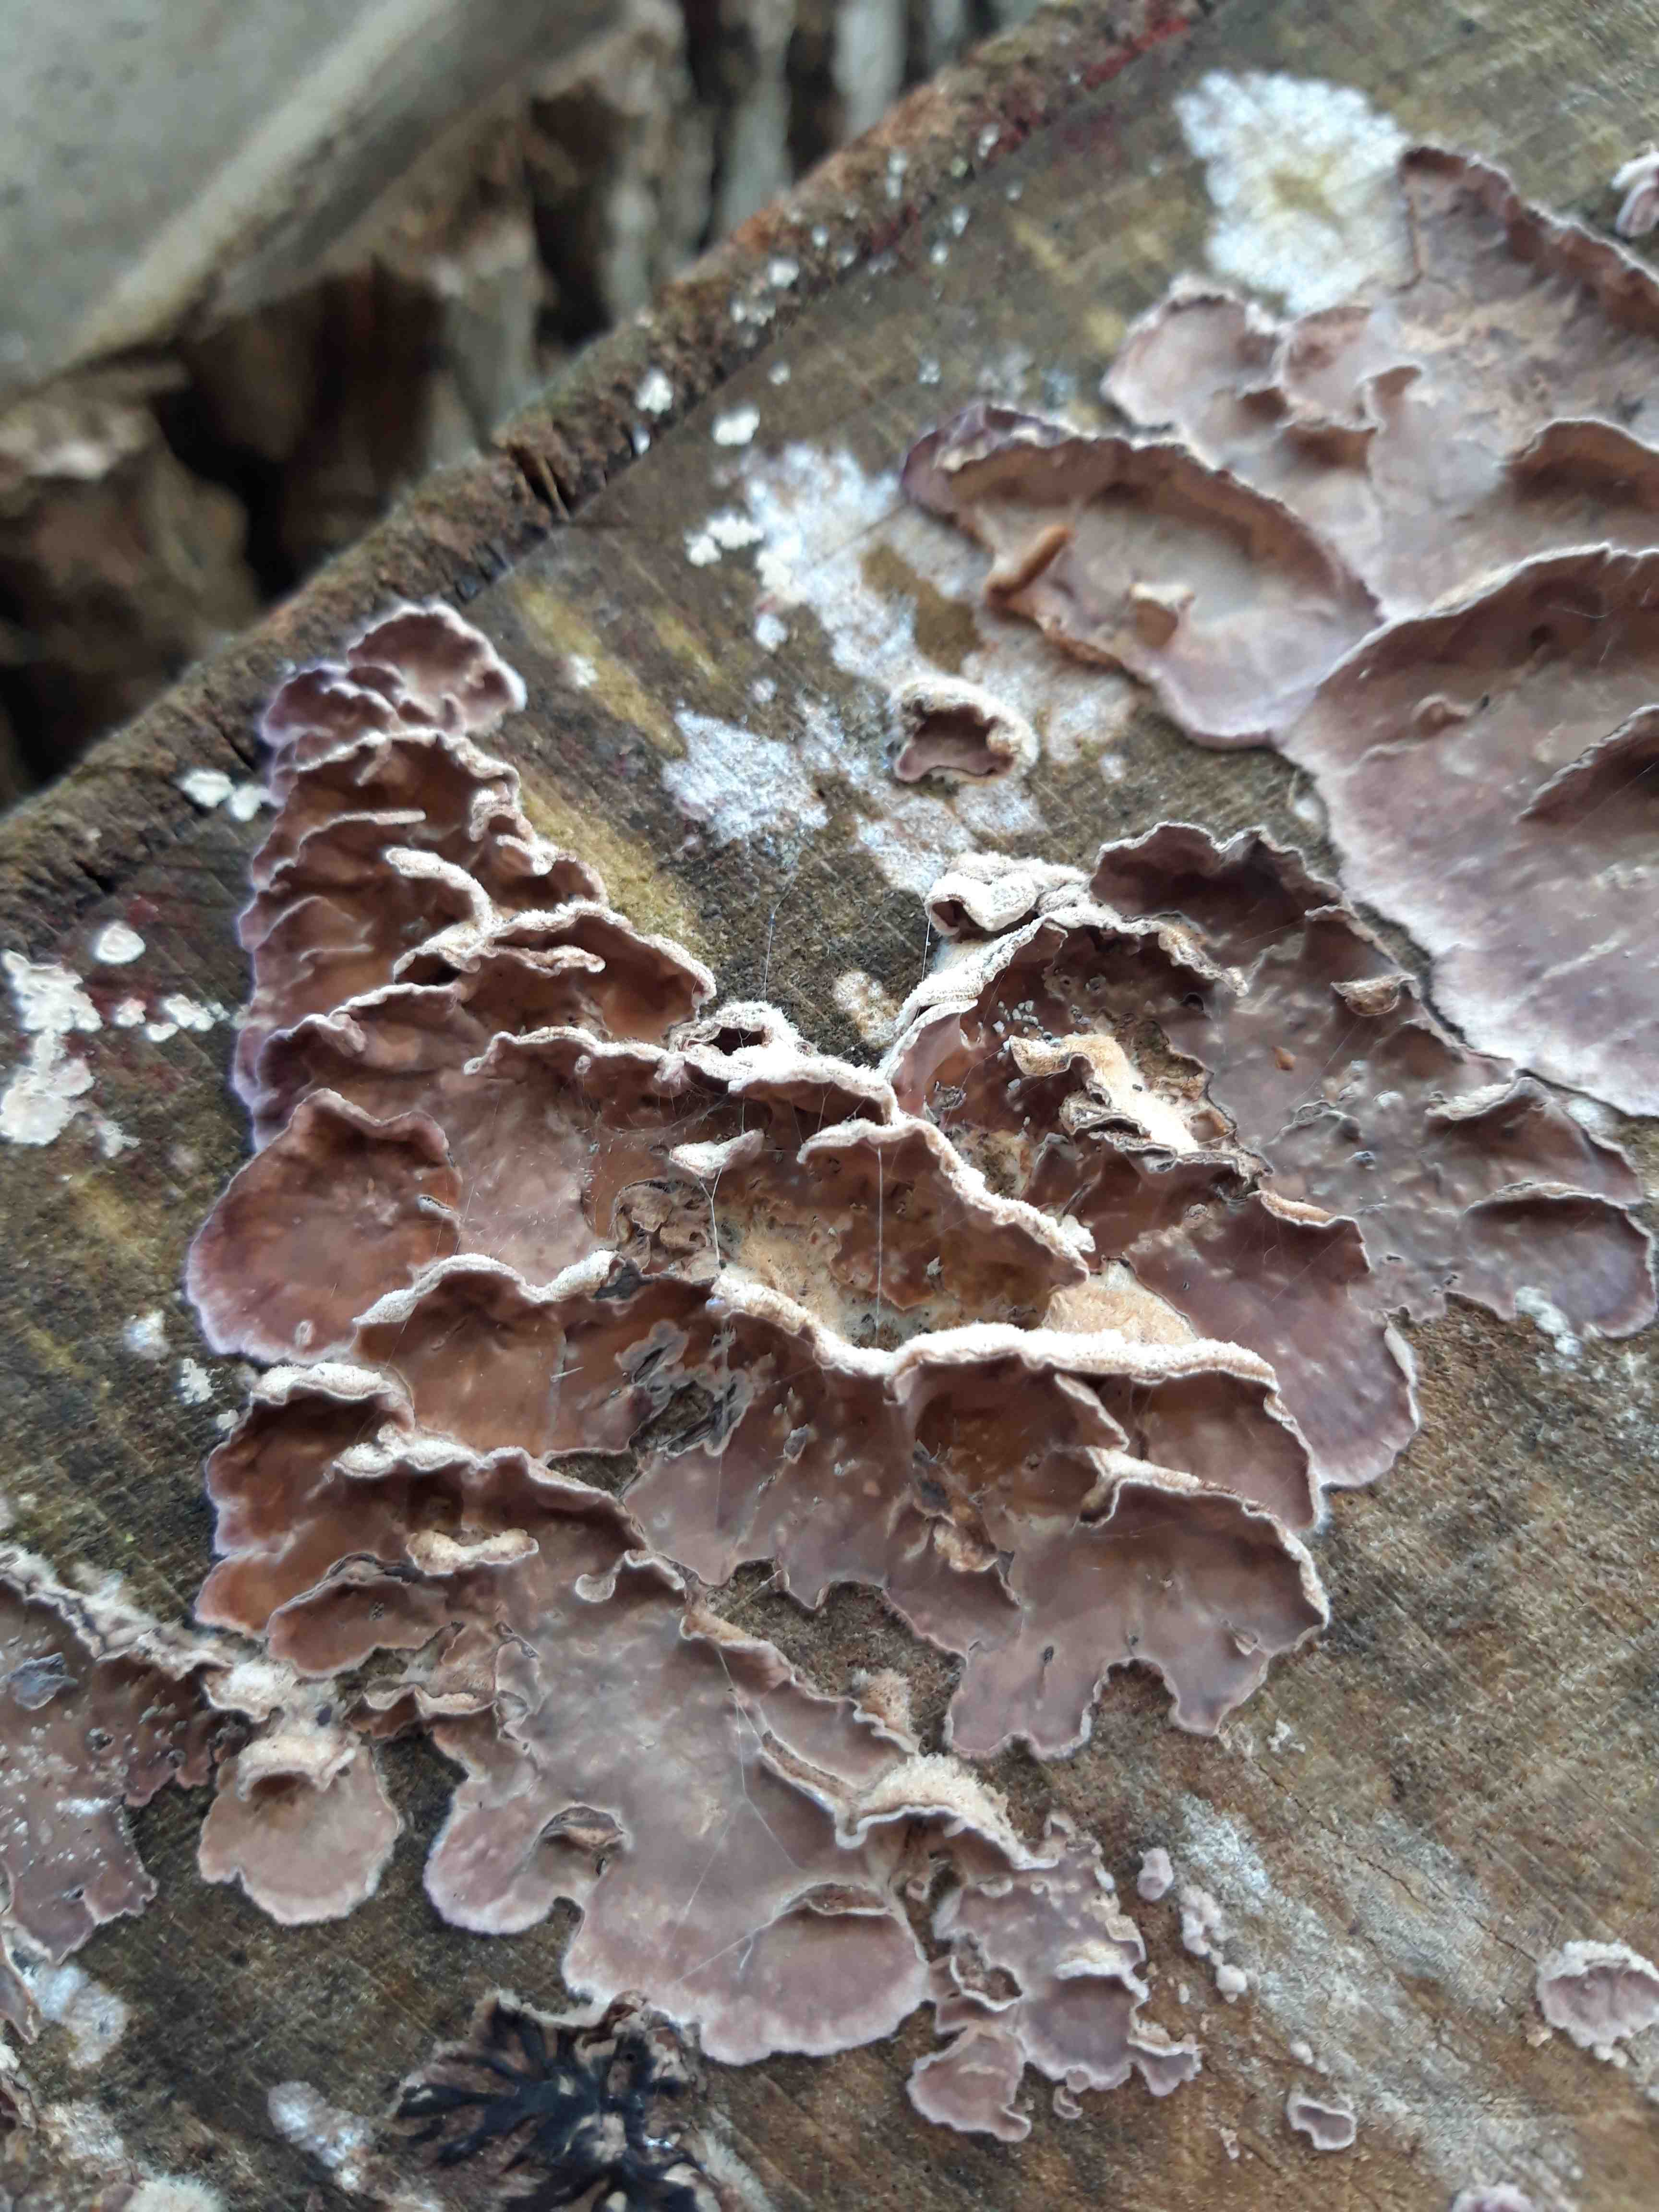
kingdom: Fungi
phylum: Basidiomycota
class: Agaricomycetes
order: Agaricales
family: Cyphellaceae
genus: Chondrostereum
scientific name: Chondrostereum purpureum
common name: purpurlædersvamp
